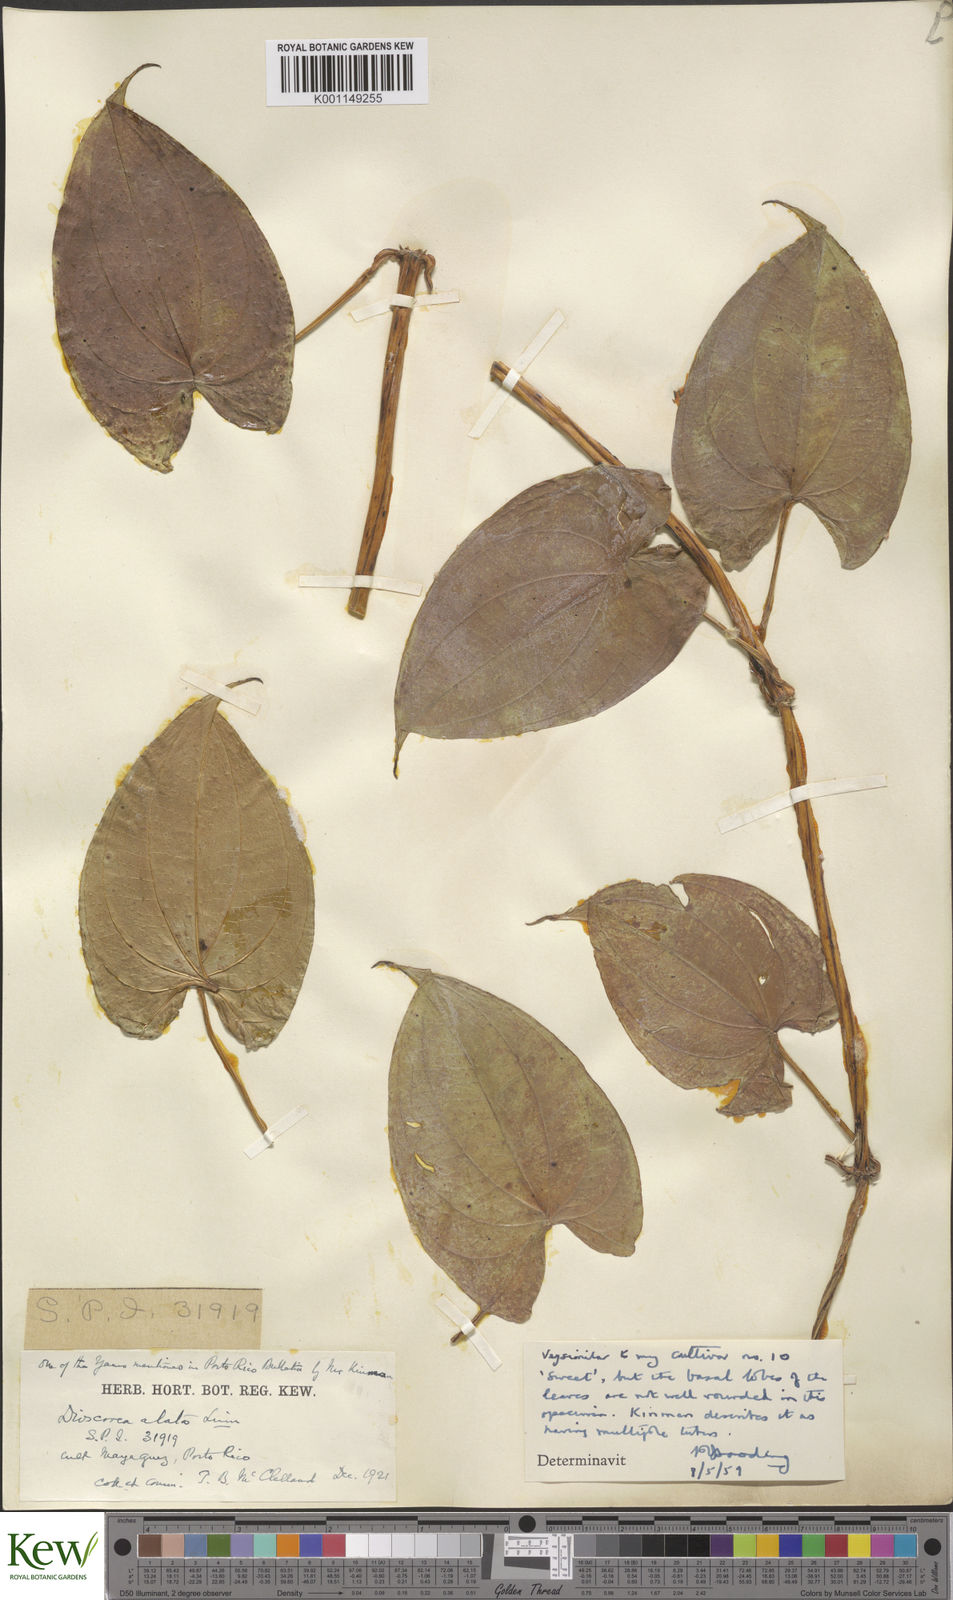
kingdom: Plantae
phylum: Tracheophyta
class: Liliopsida
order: Dioscoreales
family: Dioscoreaceae
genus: Dioscorea
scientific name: Dioscorea alata
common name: Water yam
